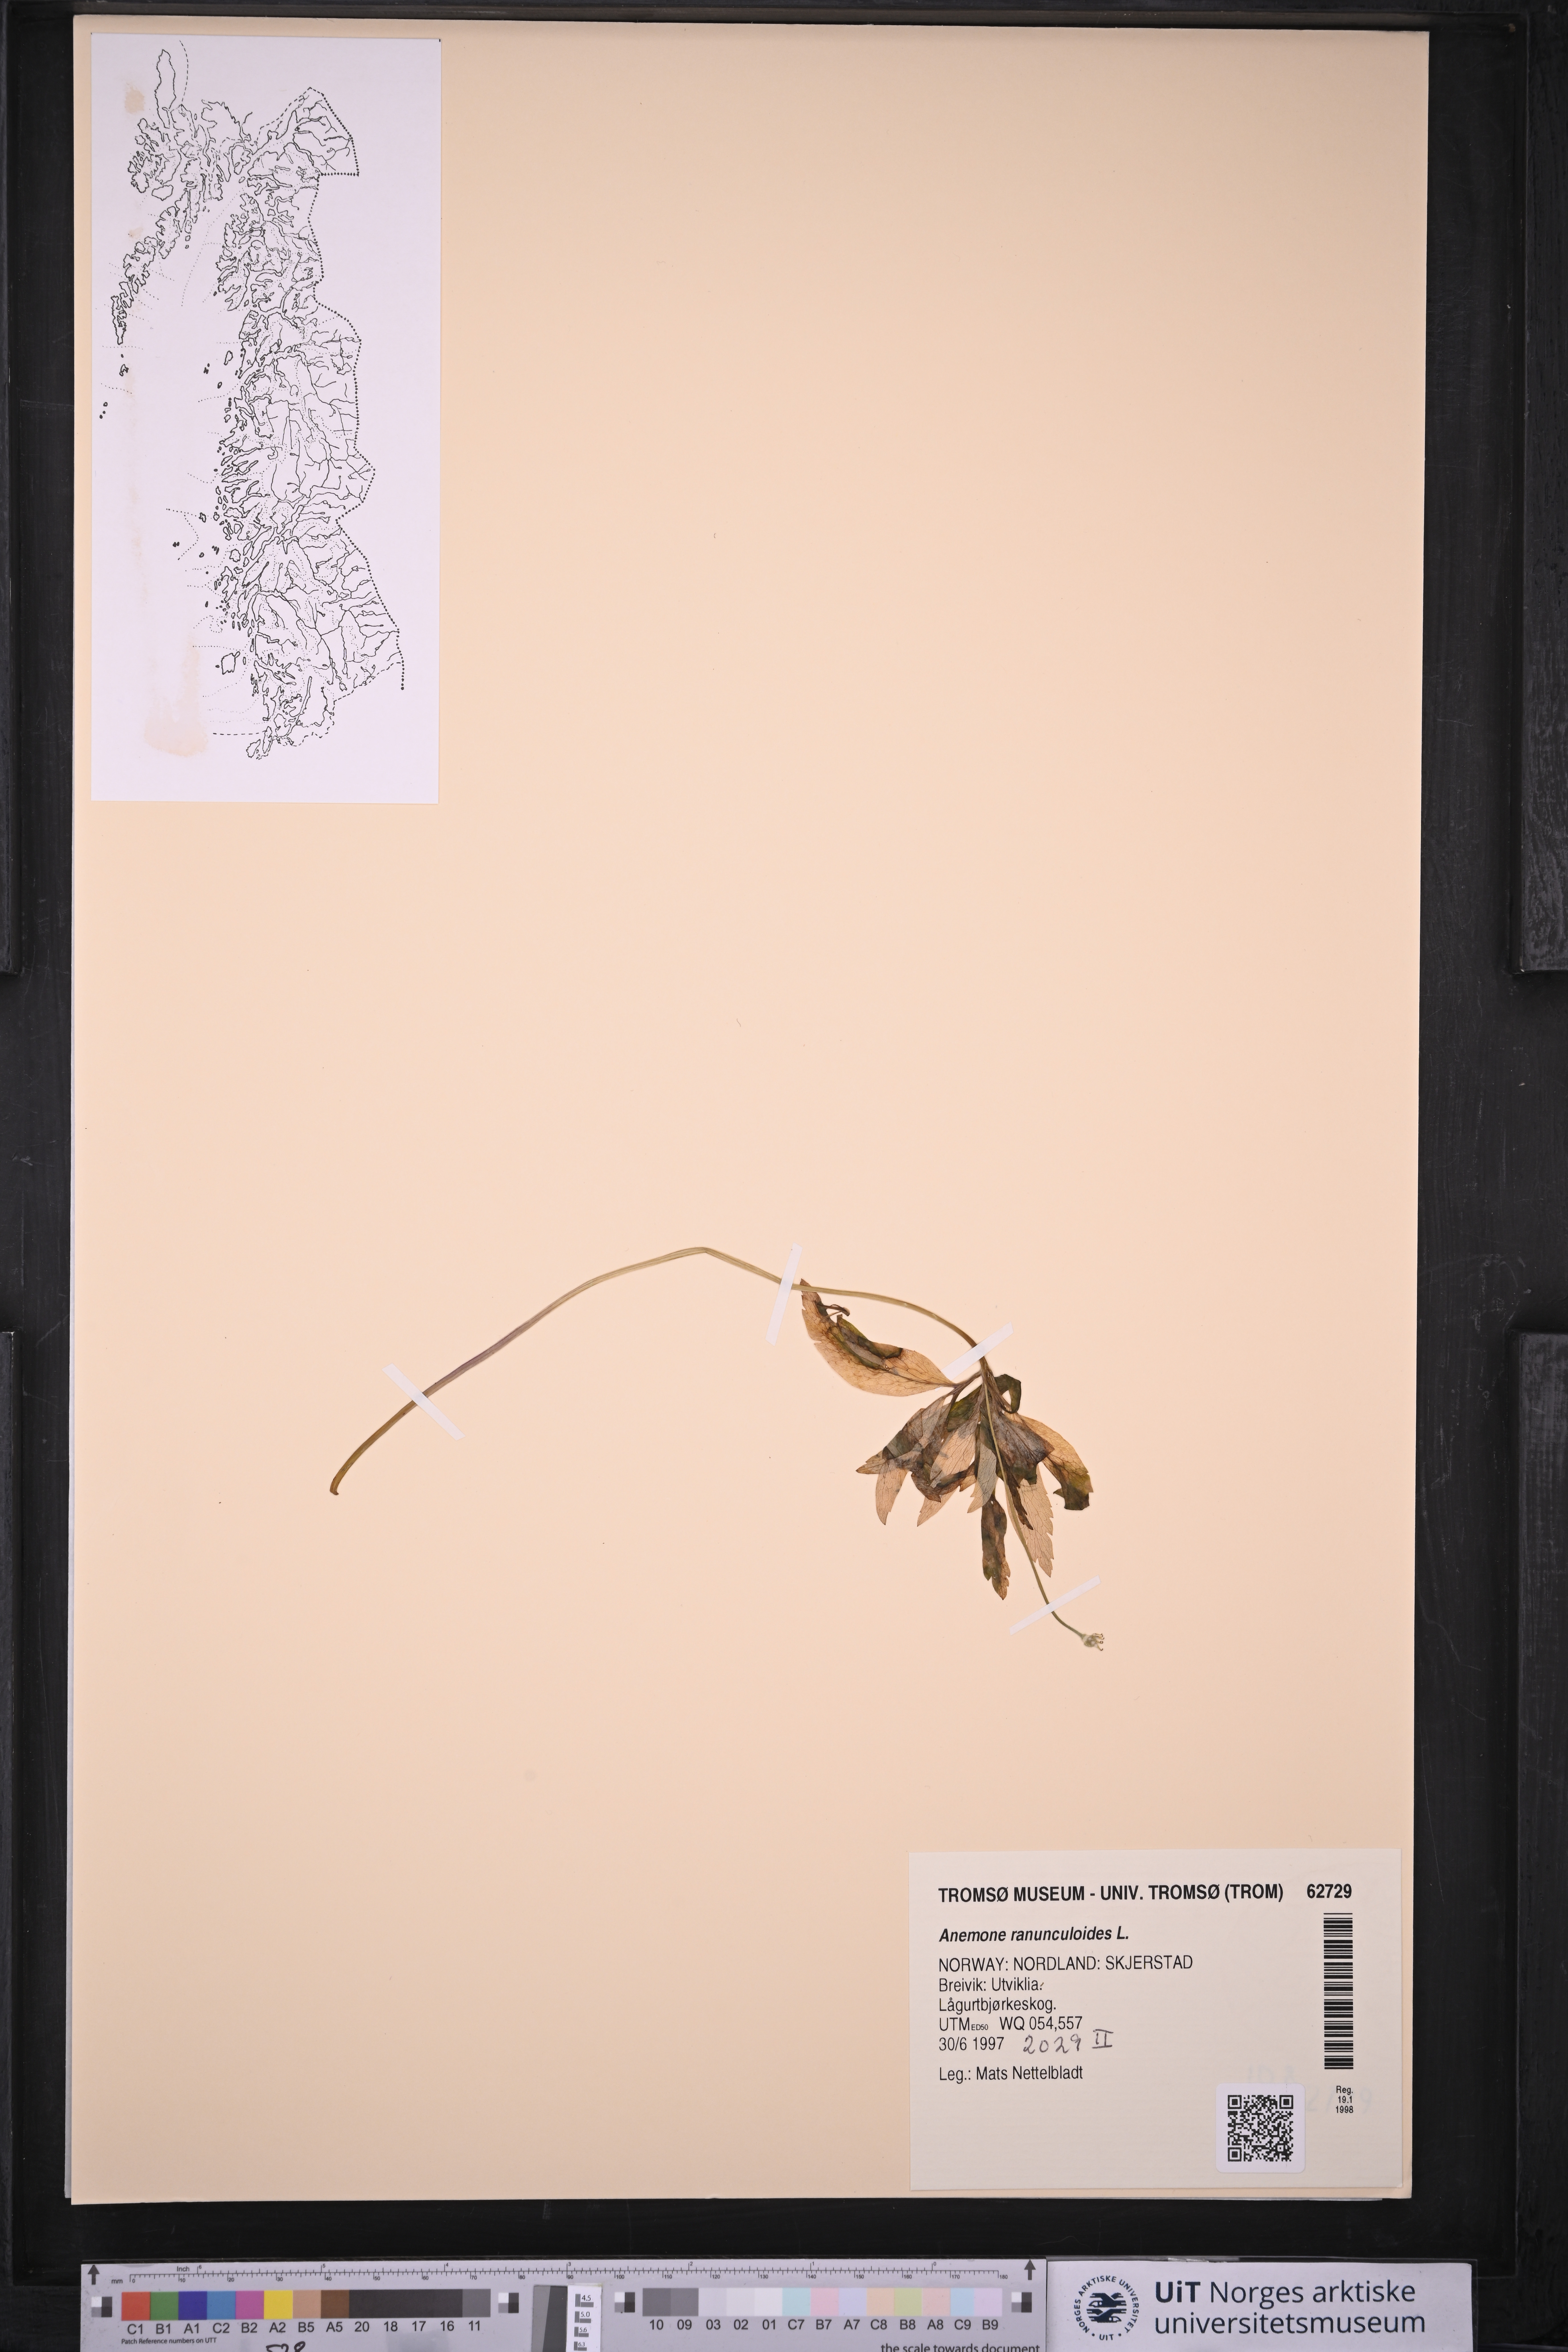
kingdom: Plantae
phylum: Tracheophyta
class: Magnoliopsida
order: Ranunculales
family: Ranunculaceae
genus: Anemone
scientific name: Anemone ranunculoides
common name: Yellow anemone
